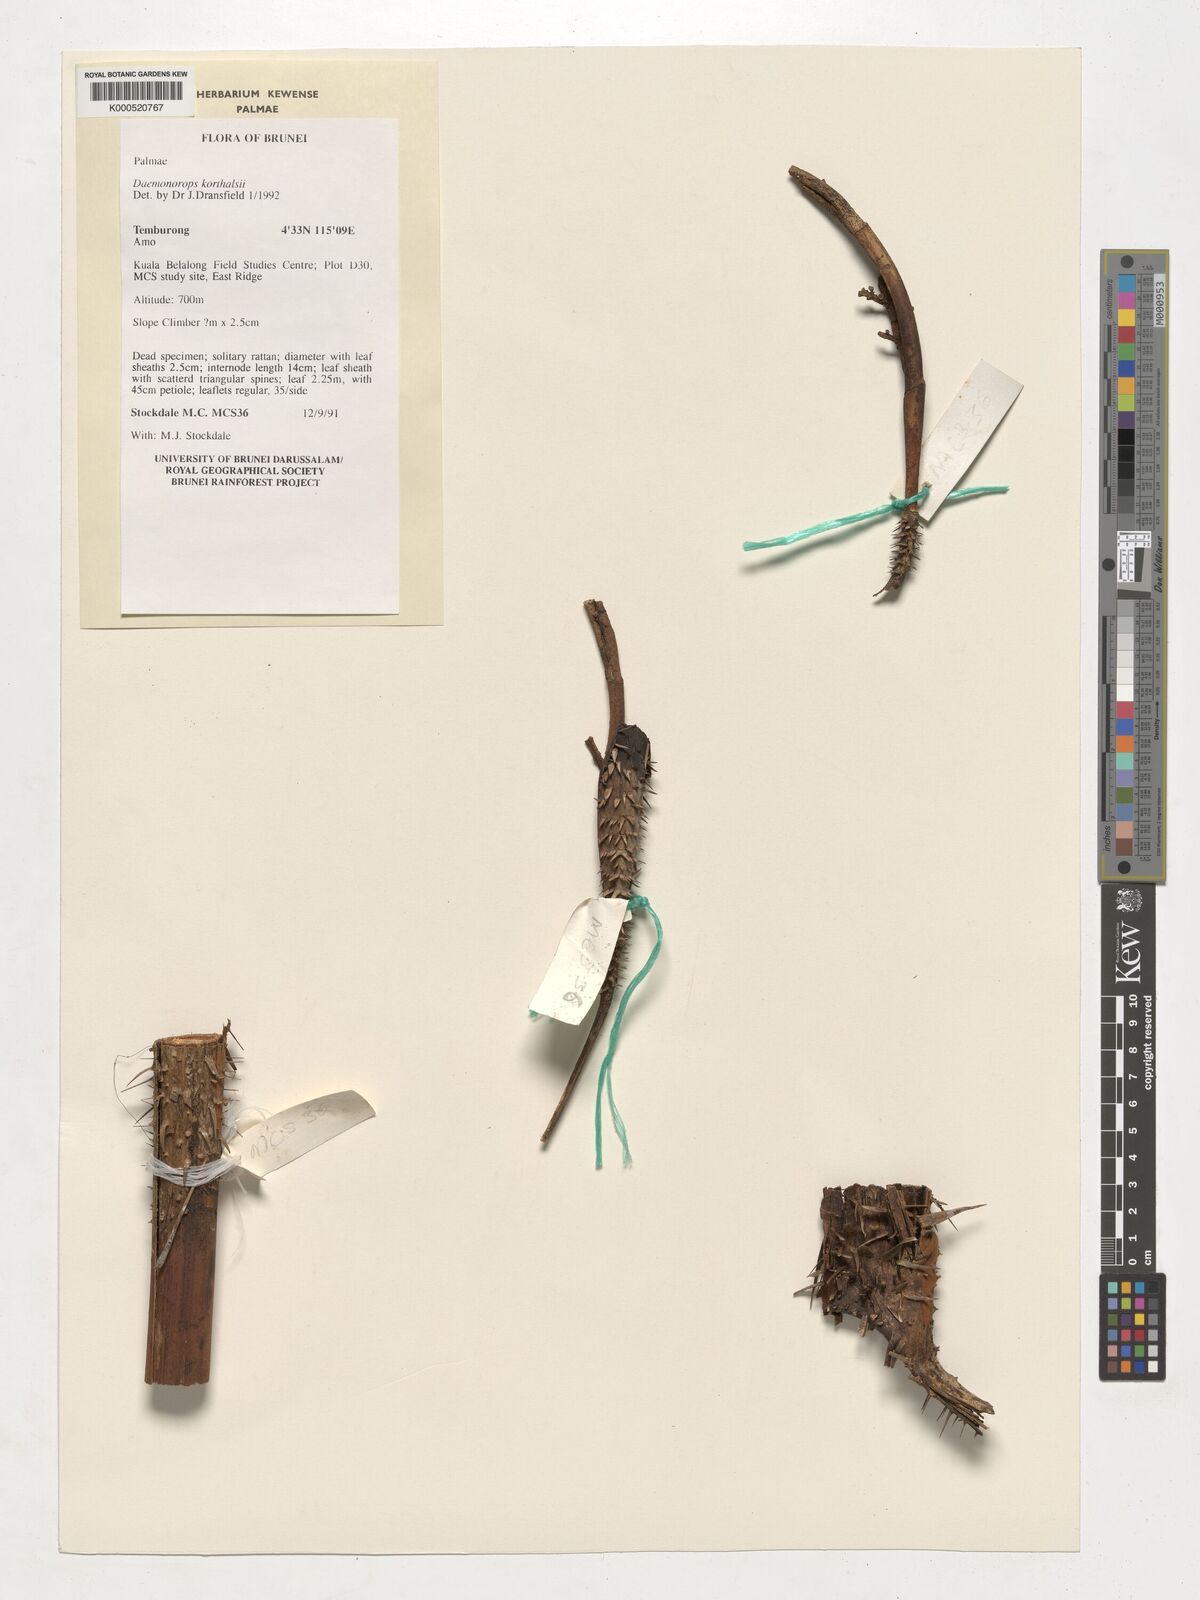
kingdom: Plantae
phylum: Tracheophyta
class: Liliopsida
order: Arecales
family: Arecaceae
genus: Calamus
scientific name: Calamus hirsutus
